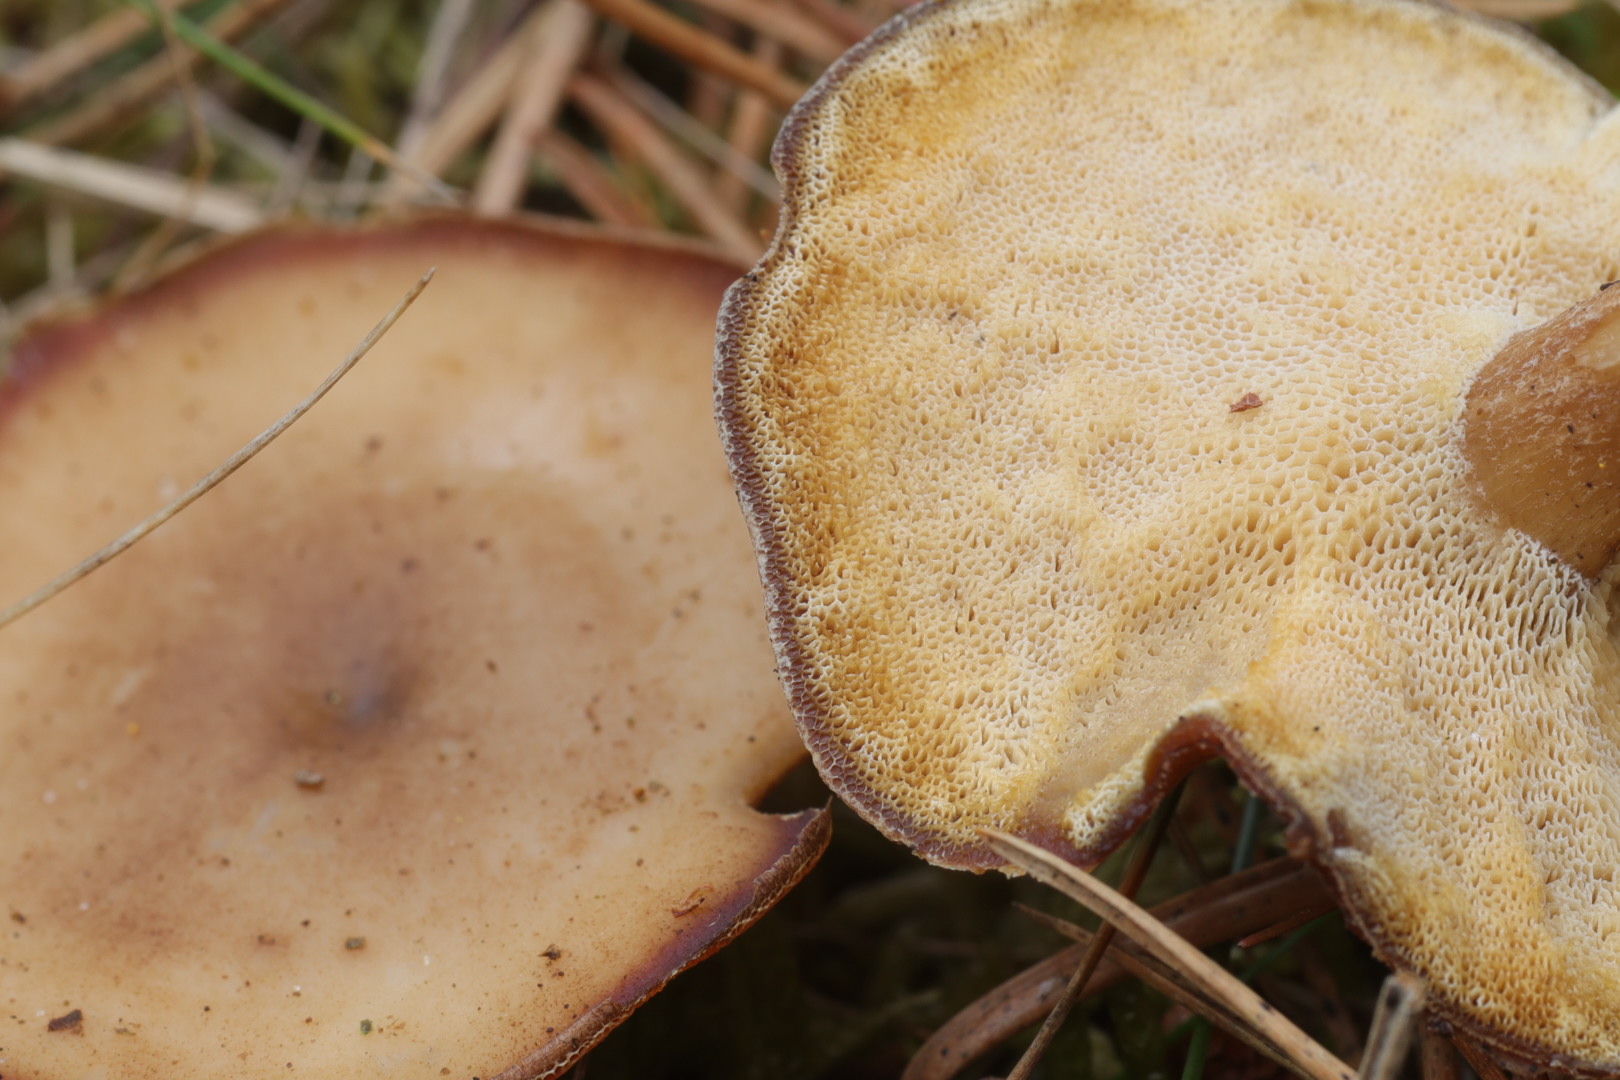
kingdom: Fungi
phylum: Basidiomycota
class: Agaricomycetes
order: Polyporales
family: Polyporaceae
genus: Lentinus
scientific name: Lentinus brumalis
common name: vinter-stilkporesvamp
